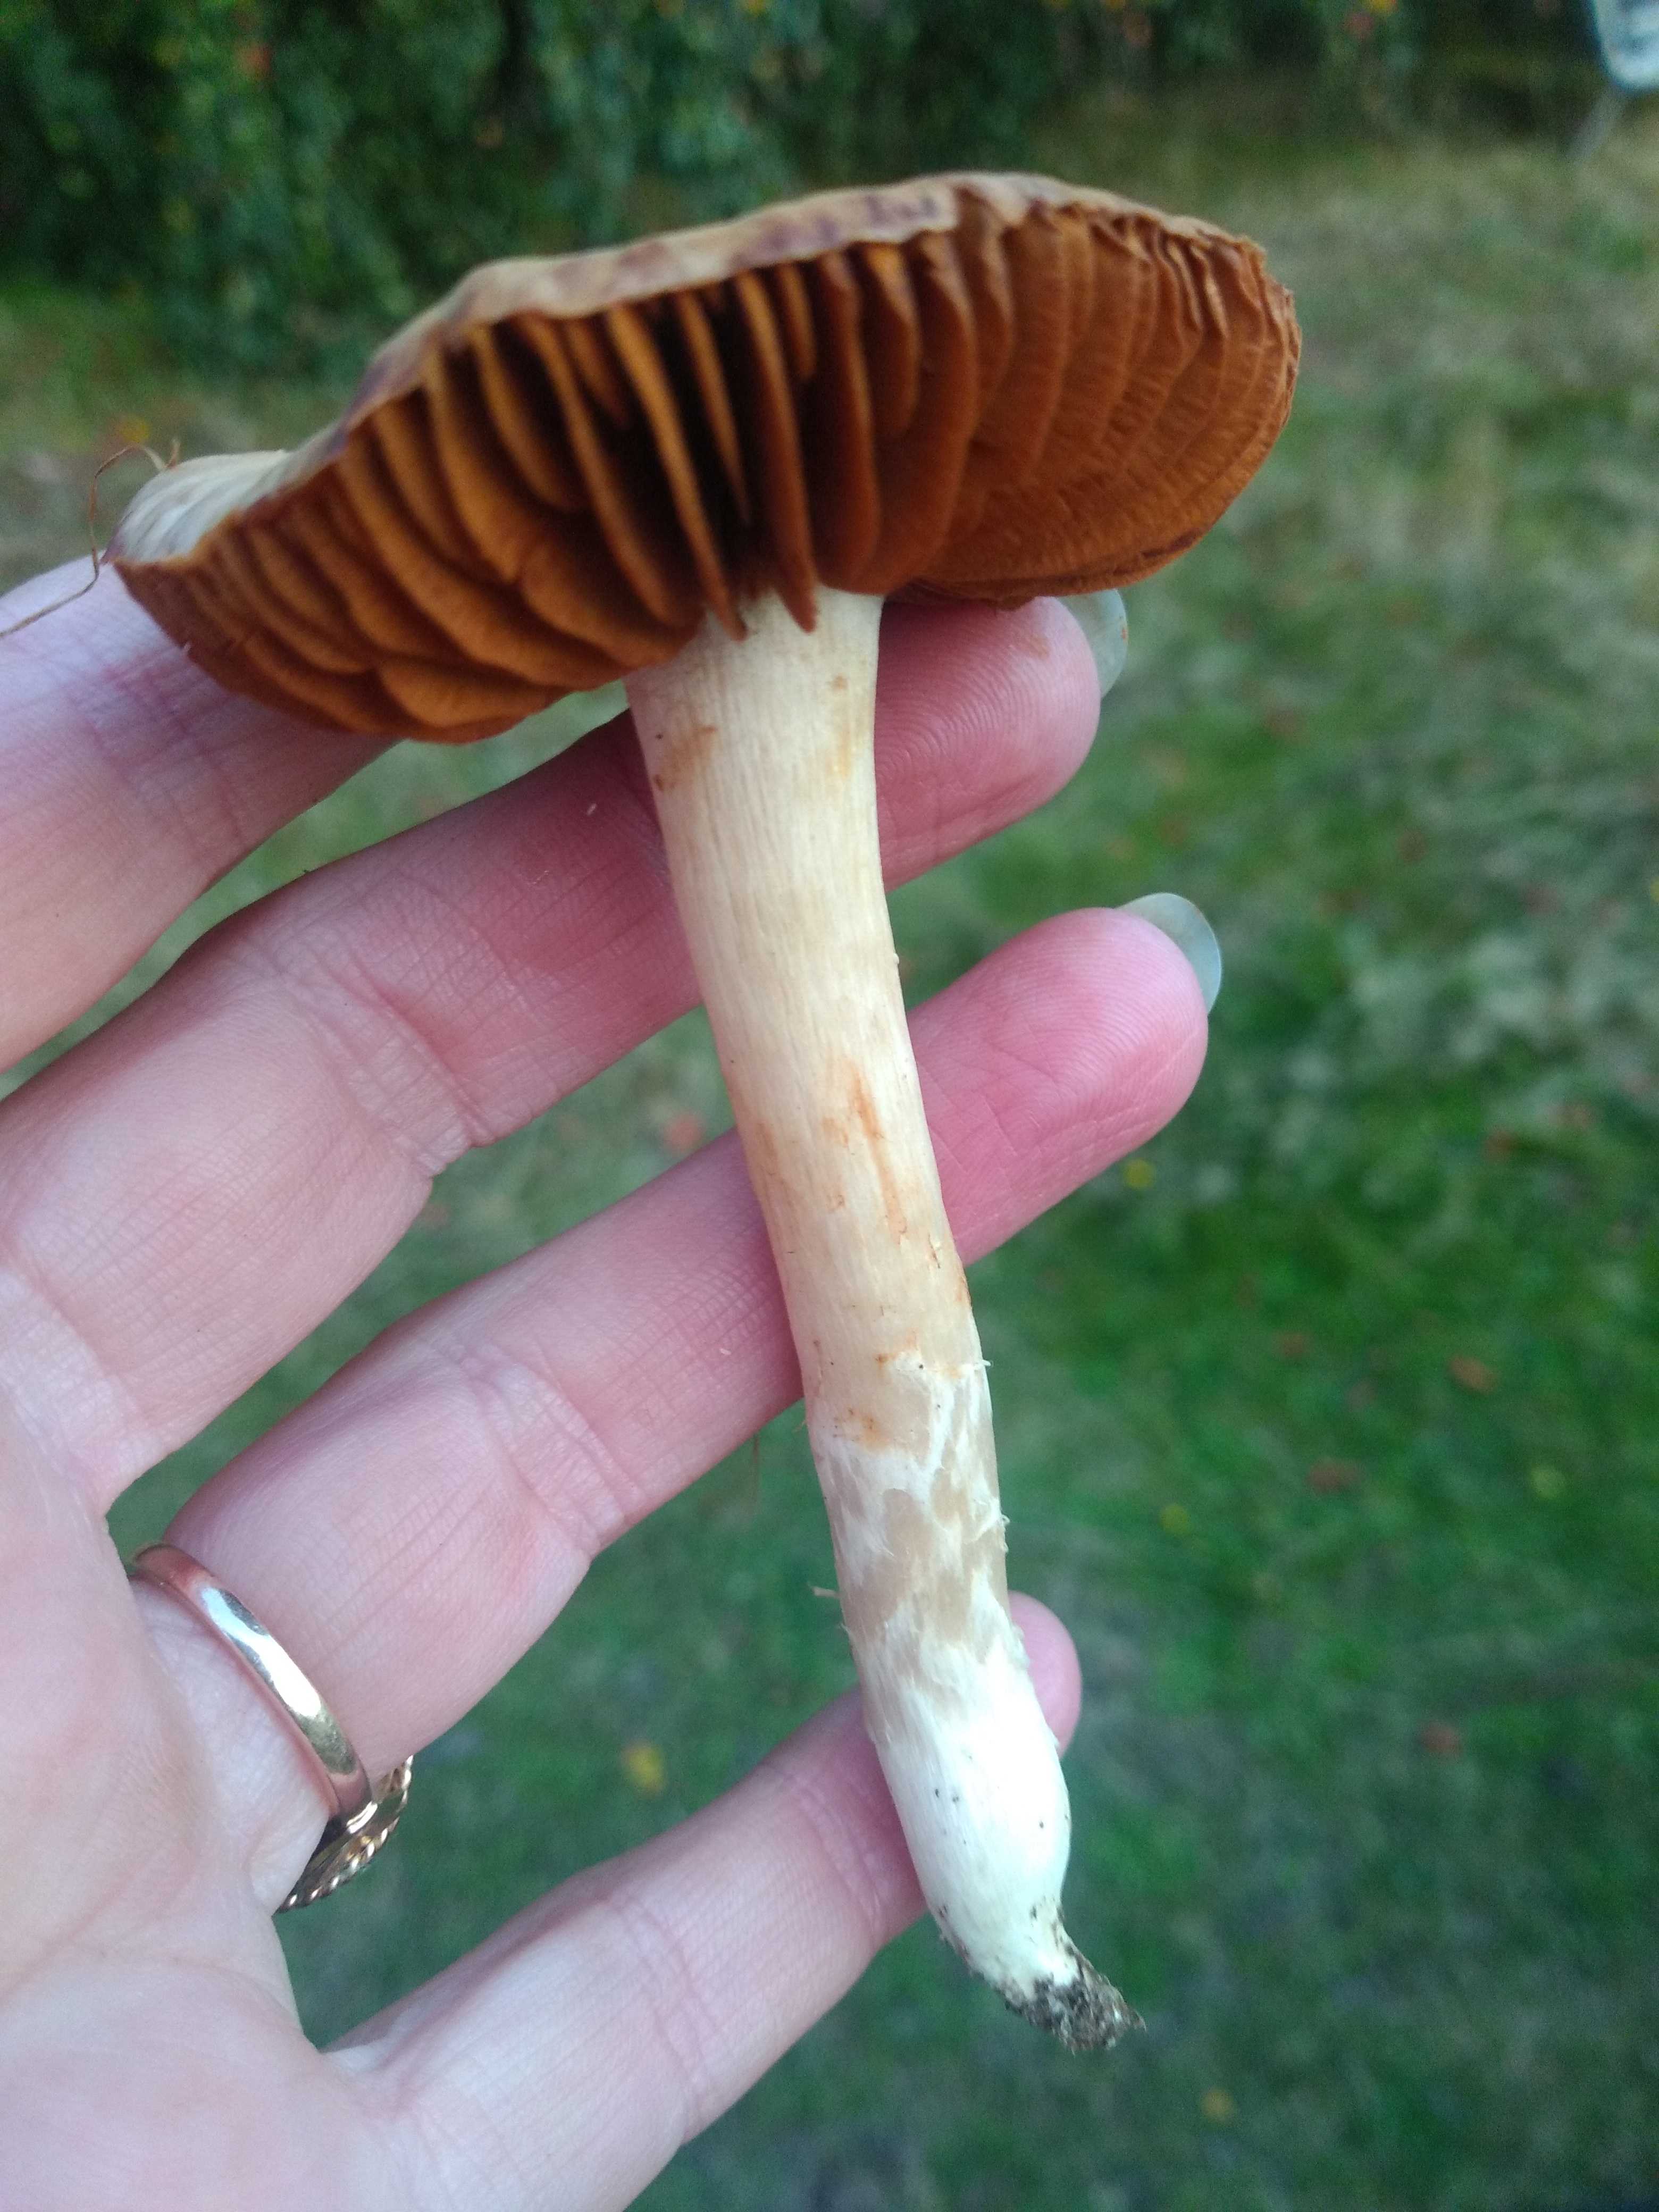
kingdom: Fungi
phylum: Basidiomycota
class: Agaricomycetes
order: Agaricales
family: Cortinariaceae
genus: Cortinarius
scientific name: Cortinarius
